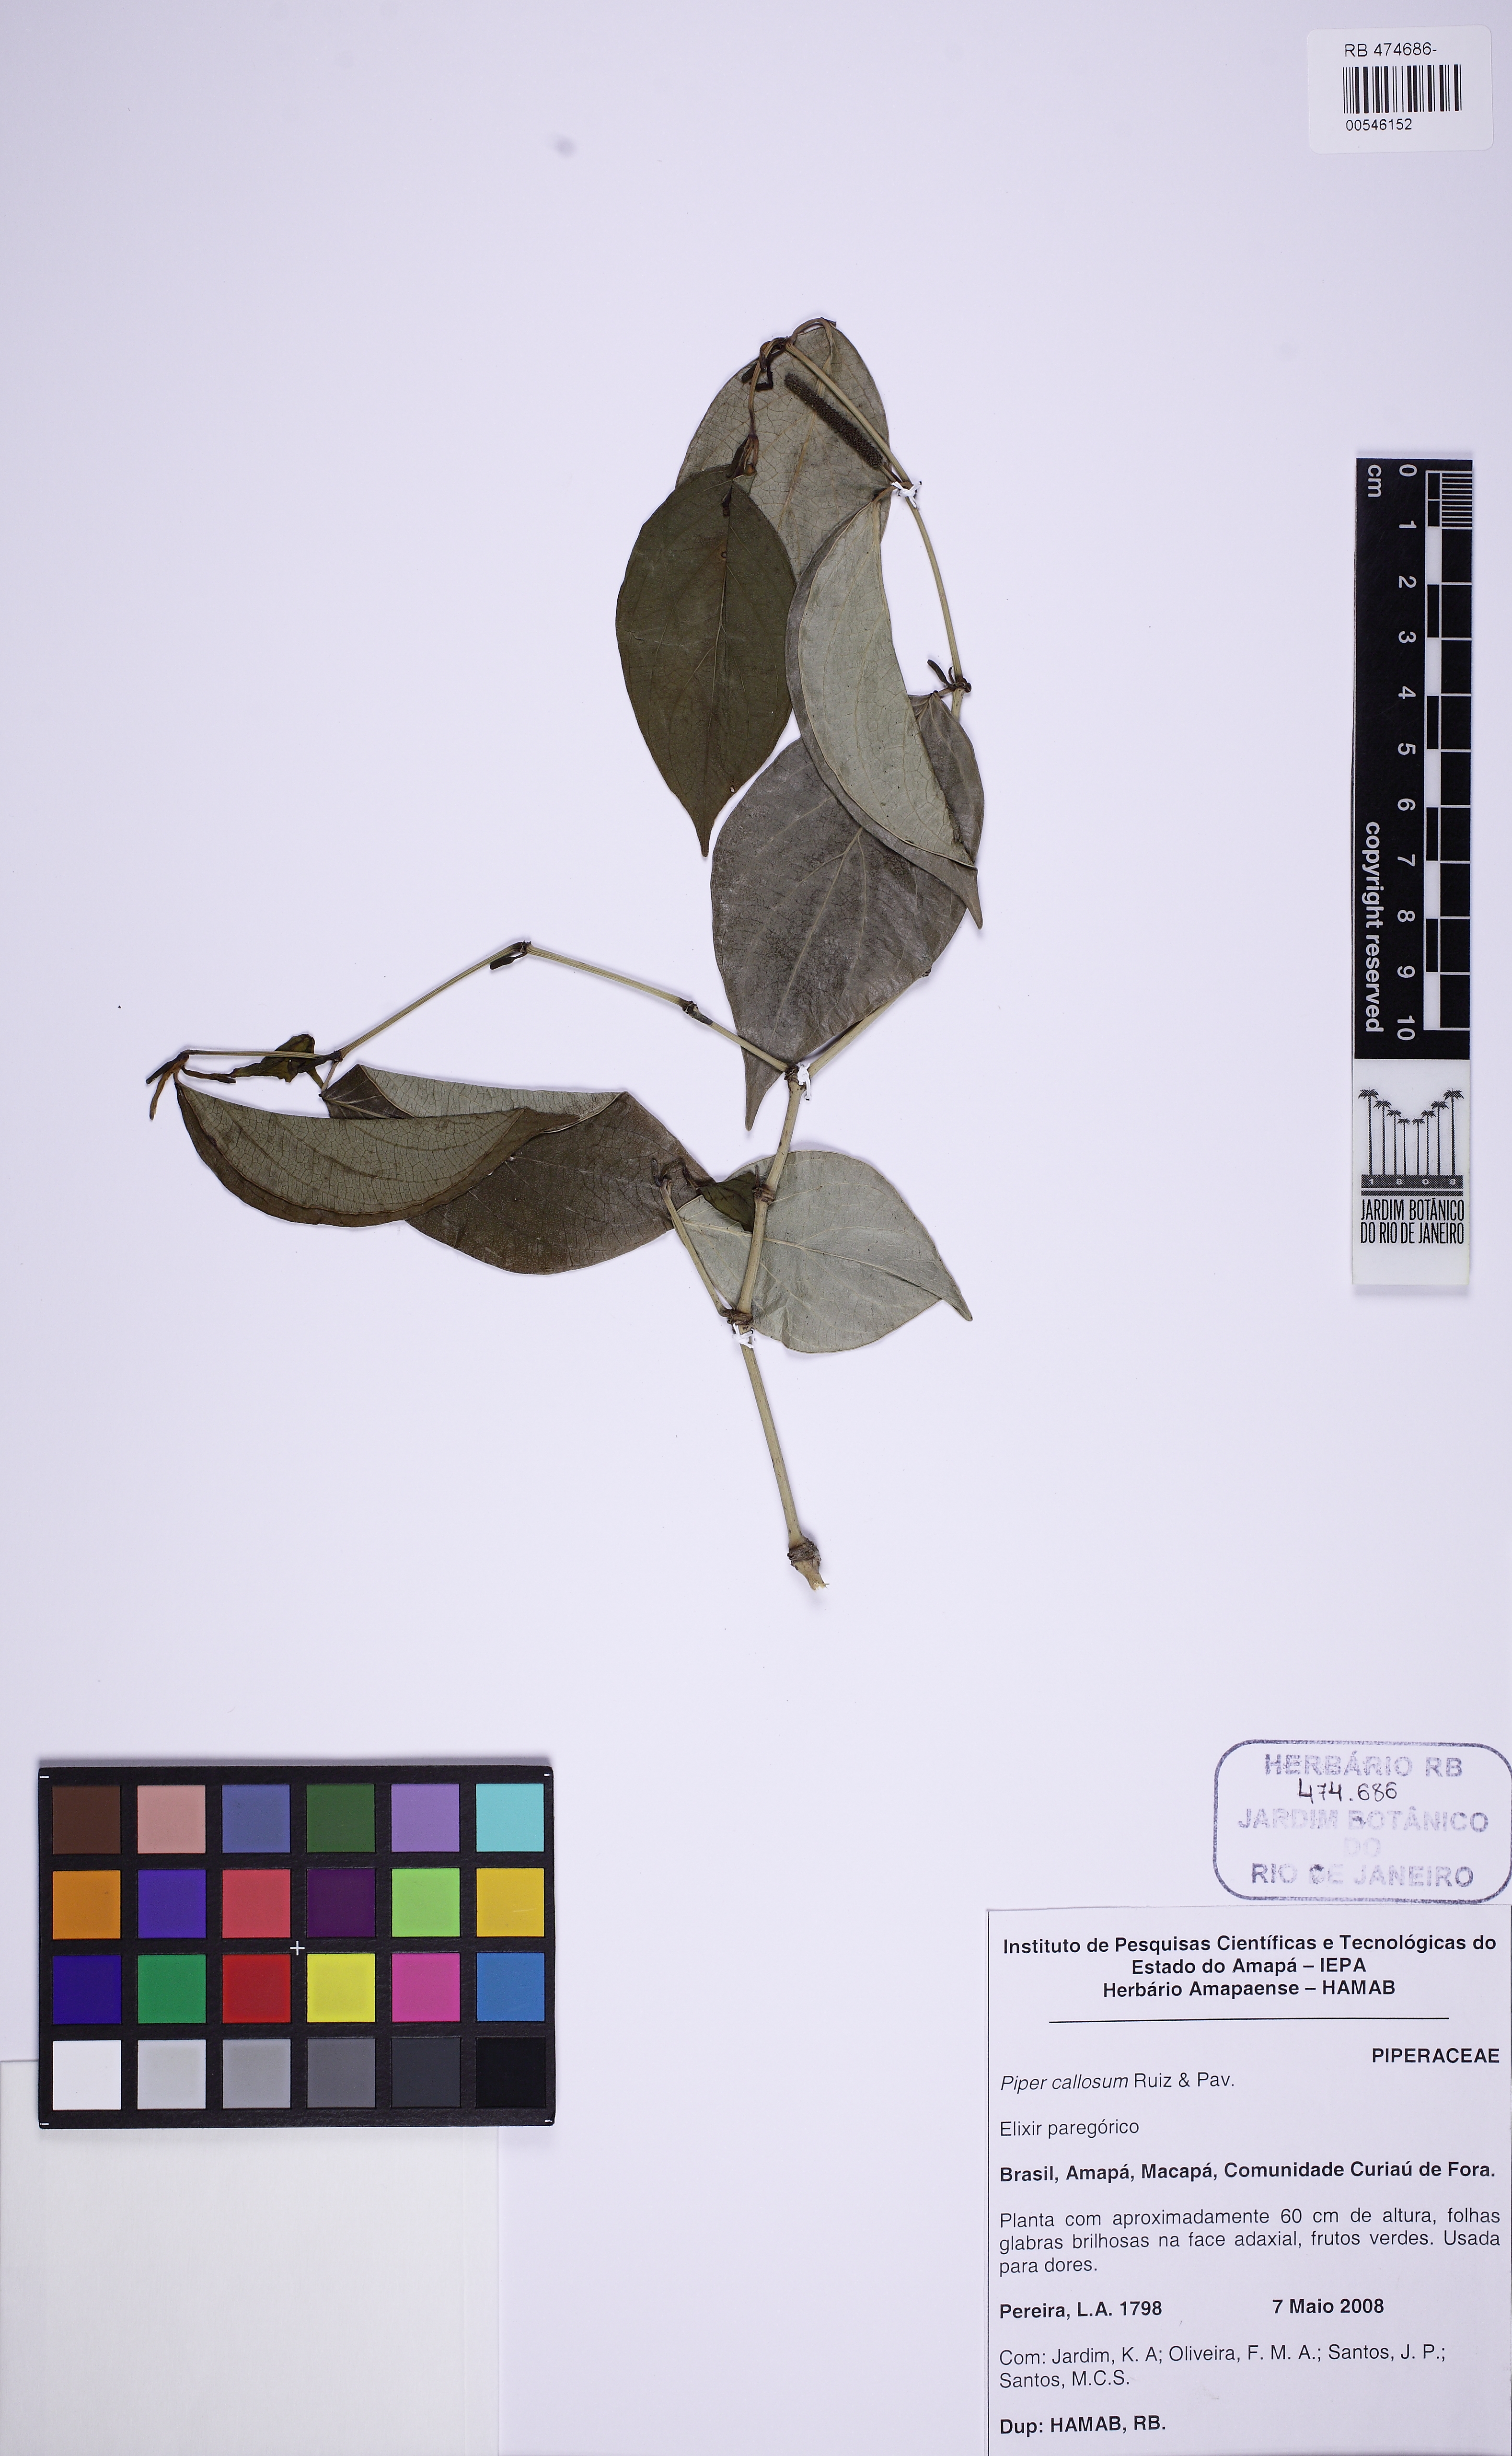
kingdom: Plantae
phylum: Tracheophyta
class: Magnoliopsida
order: Piperales
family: Piperaceae
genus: Piper
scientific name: Piper callosum
